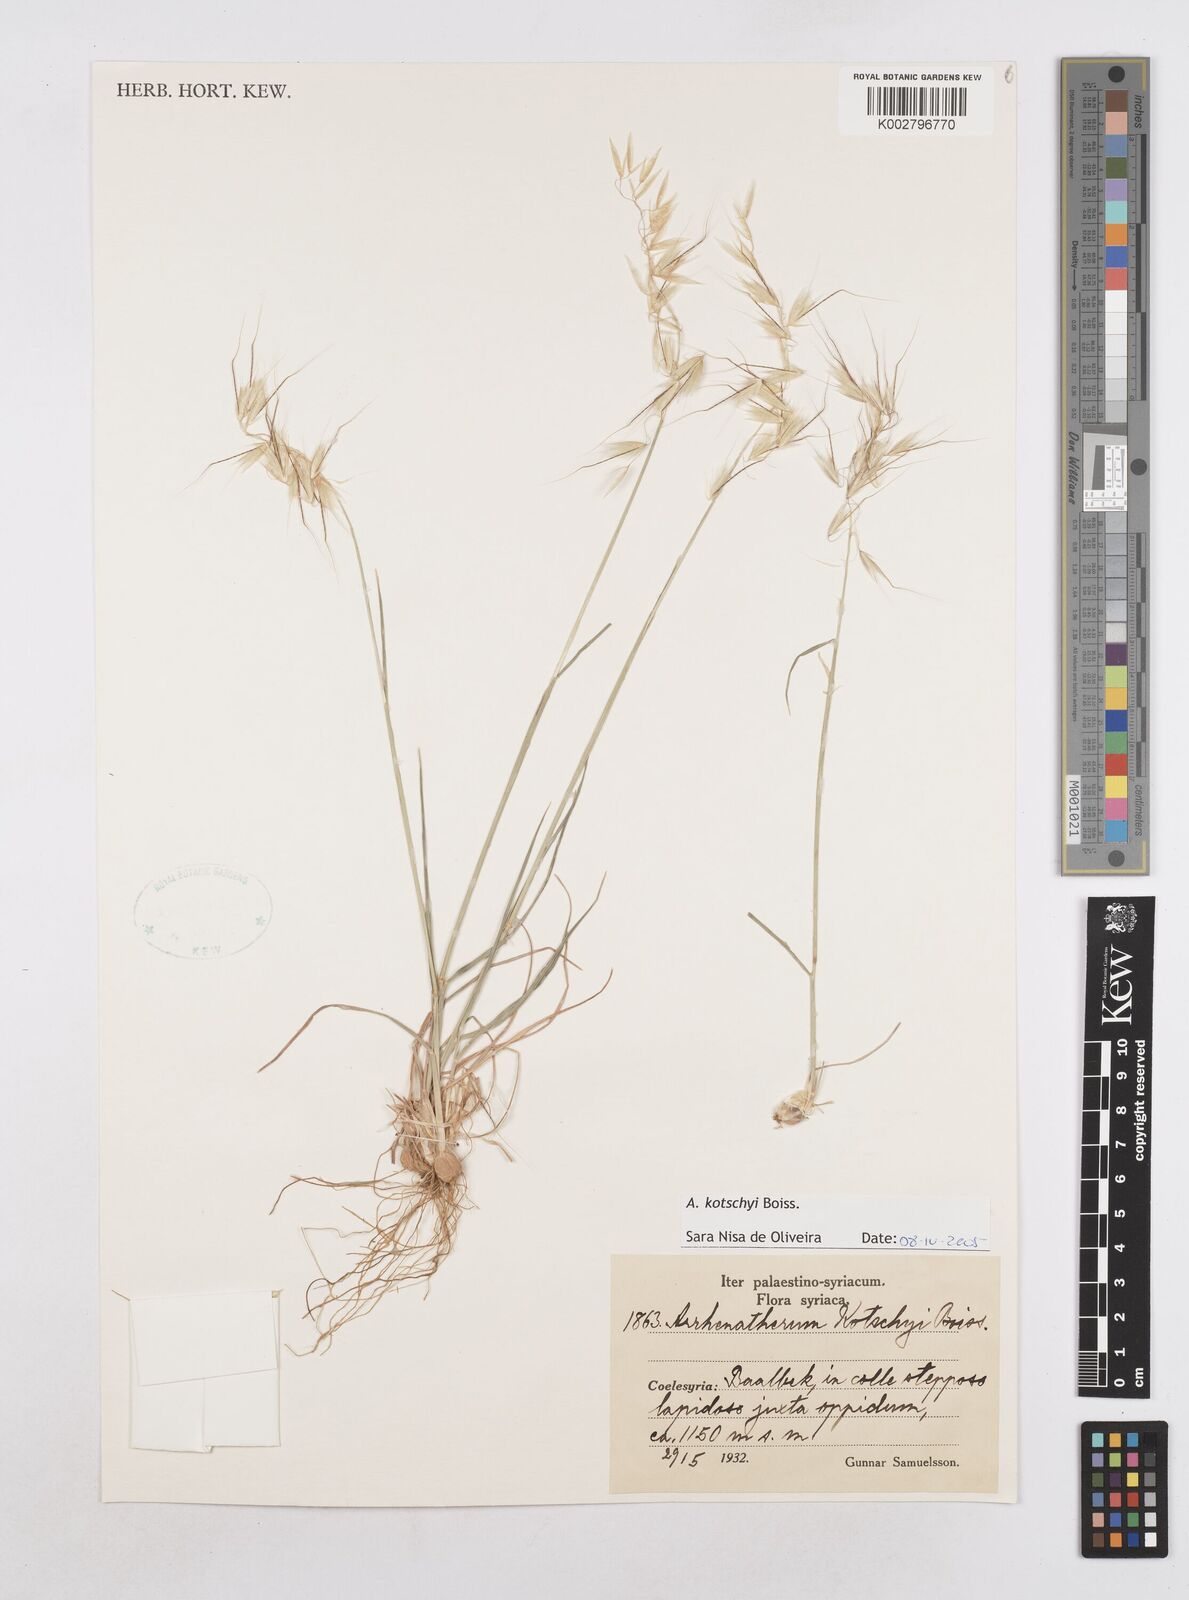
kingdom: Plantae
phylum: Tracheophyta
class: Liliopsida
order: Poales
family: Poaceae
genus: Arrhenatherum
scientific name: Arrhenatherum kotschyi
